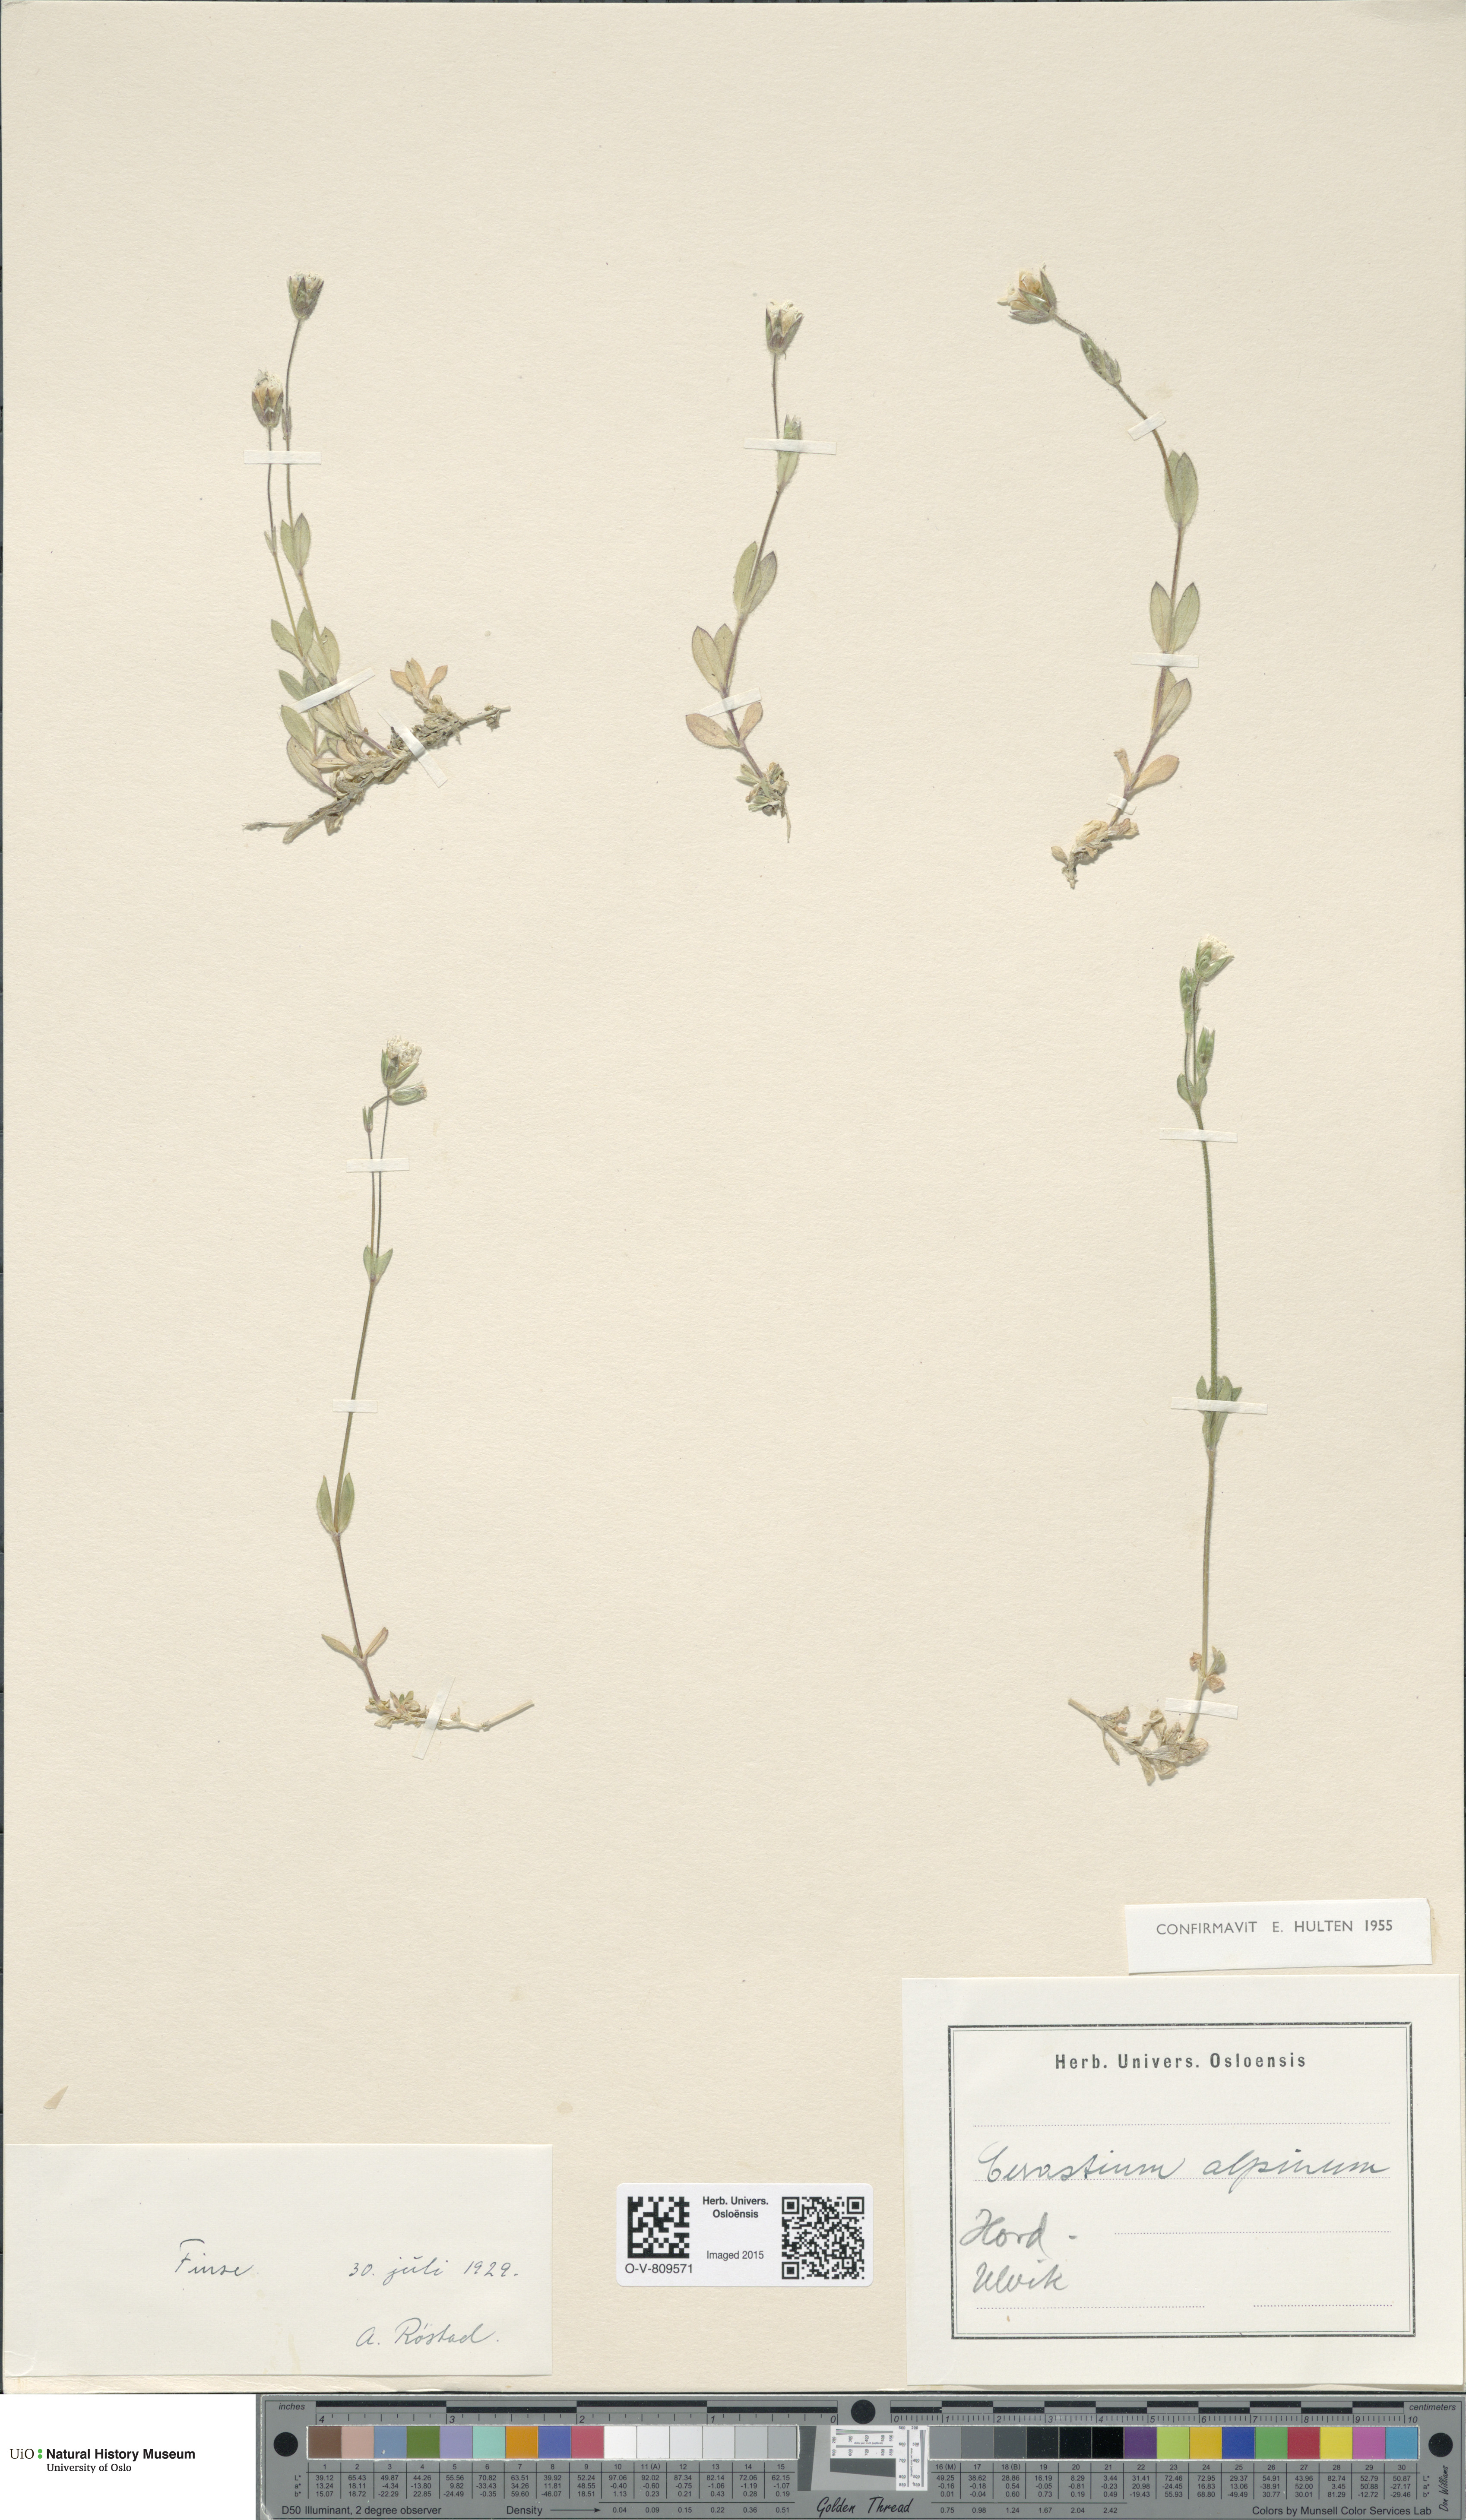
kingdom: Plantae
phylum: Tracheophyta
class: Magnoliopsida
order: Caryophyllales
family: Caryophyllaceae
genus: Cerastium
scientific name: Cerastium alpinum
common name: Alpine mouse-ear
